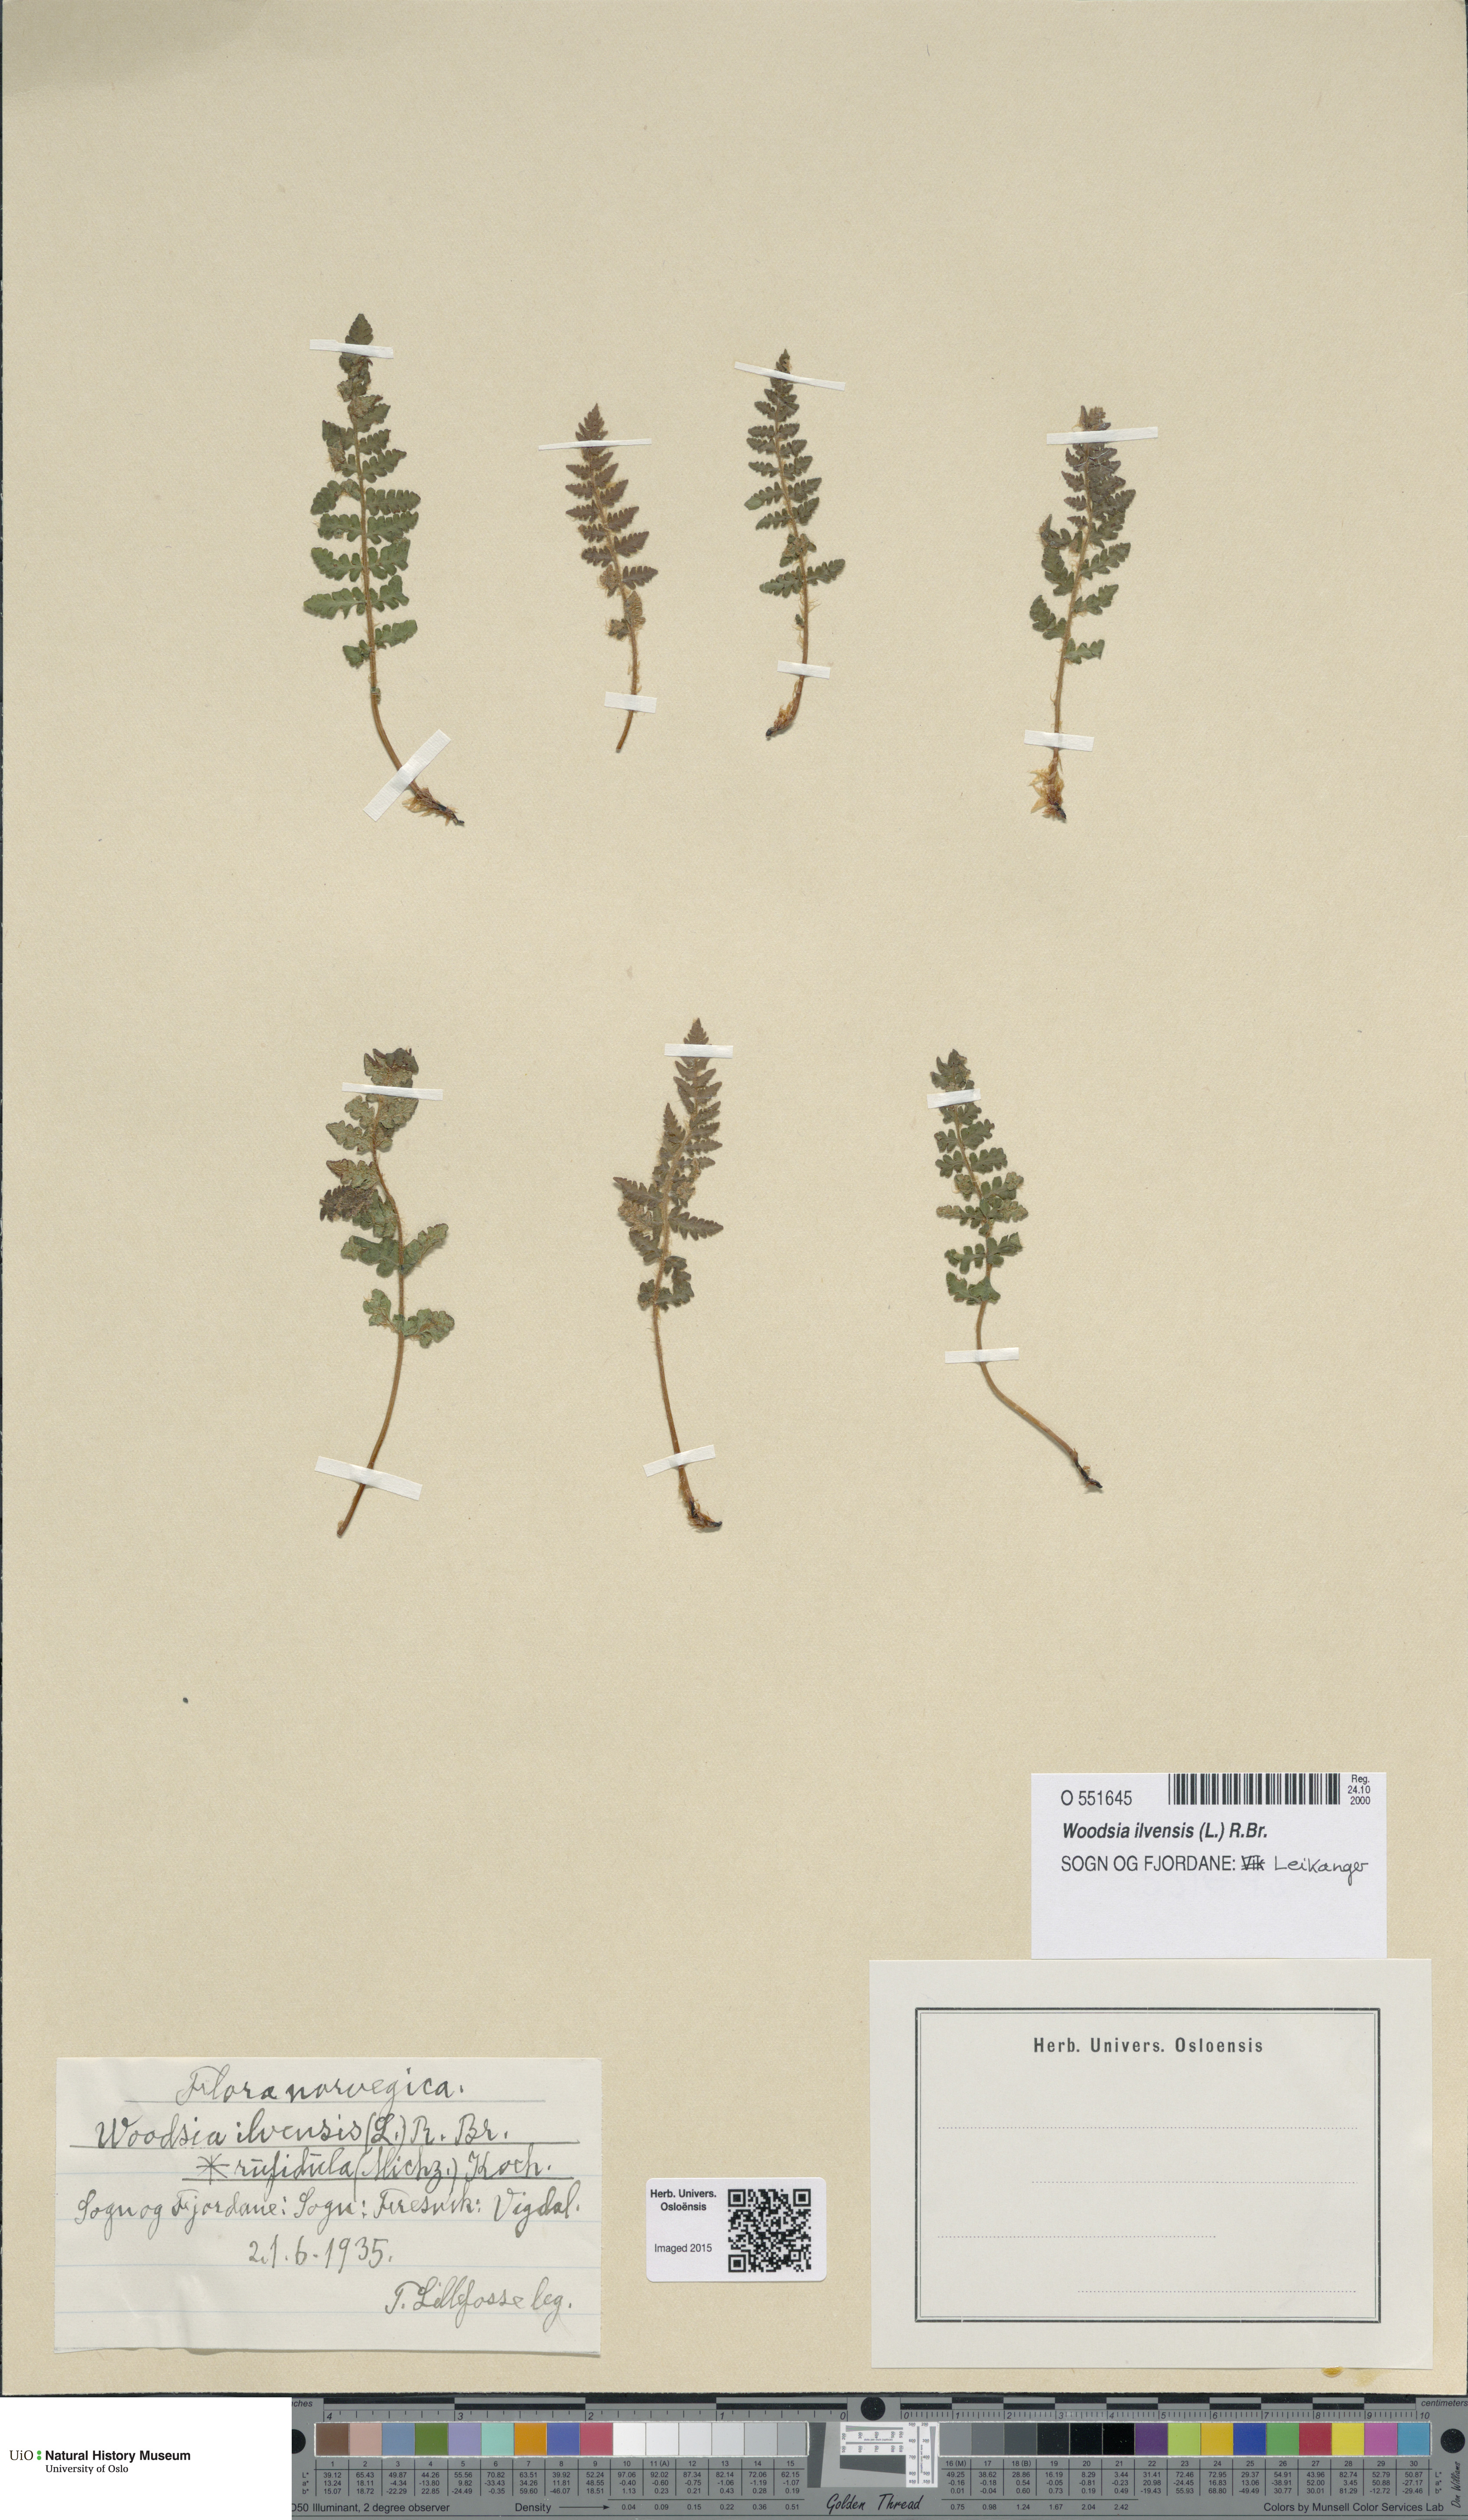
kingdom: Plantae
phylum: Tracheophyta
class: Polypodiopsida
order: Polypodiales
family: Woodsiaceae
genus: Woodsia
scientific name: Woodsia ilvensis
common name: Fragrant woodsia
